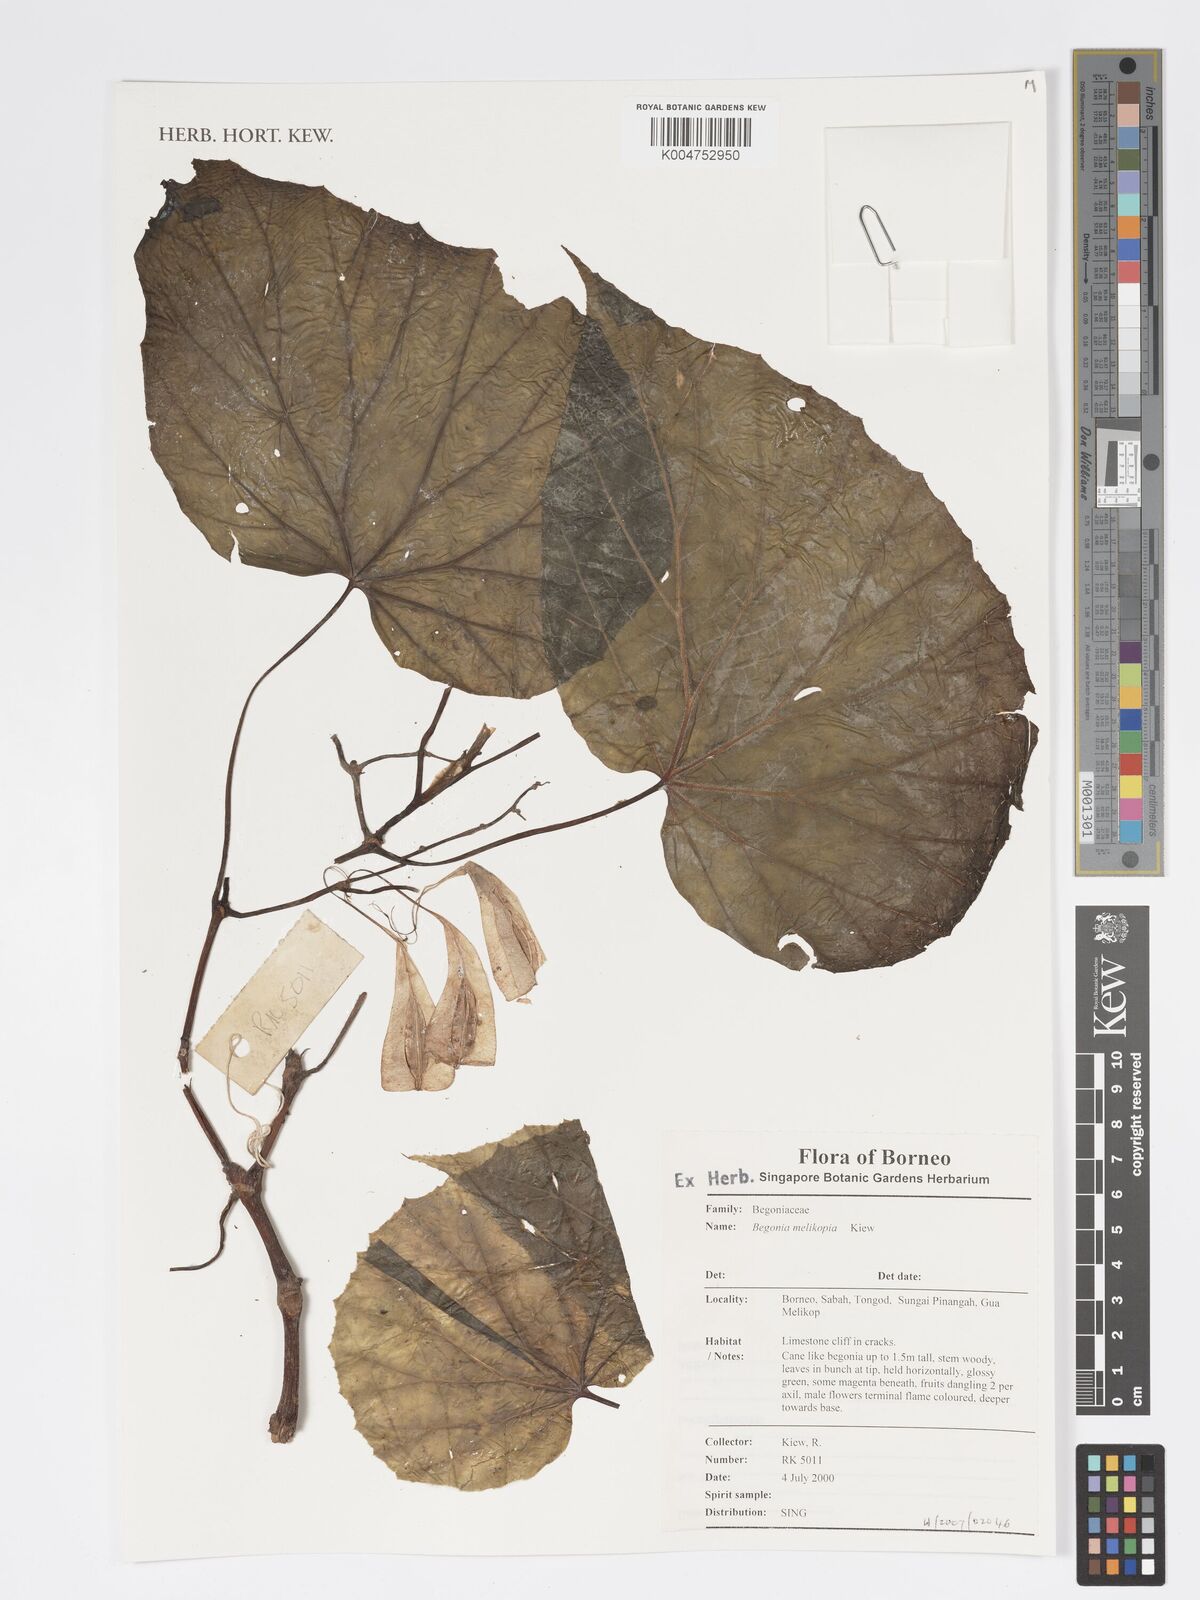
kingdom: Plantae
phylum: Tracheophyta
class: Magnoliopsida
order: Cucurbitales
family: Begoniaceae
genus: Begonia
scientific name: Begonia
